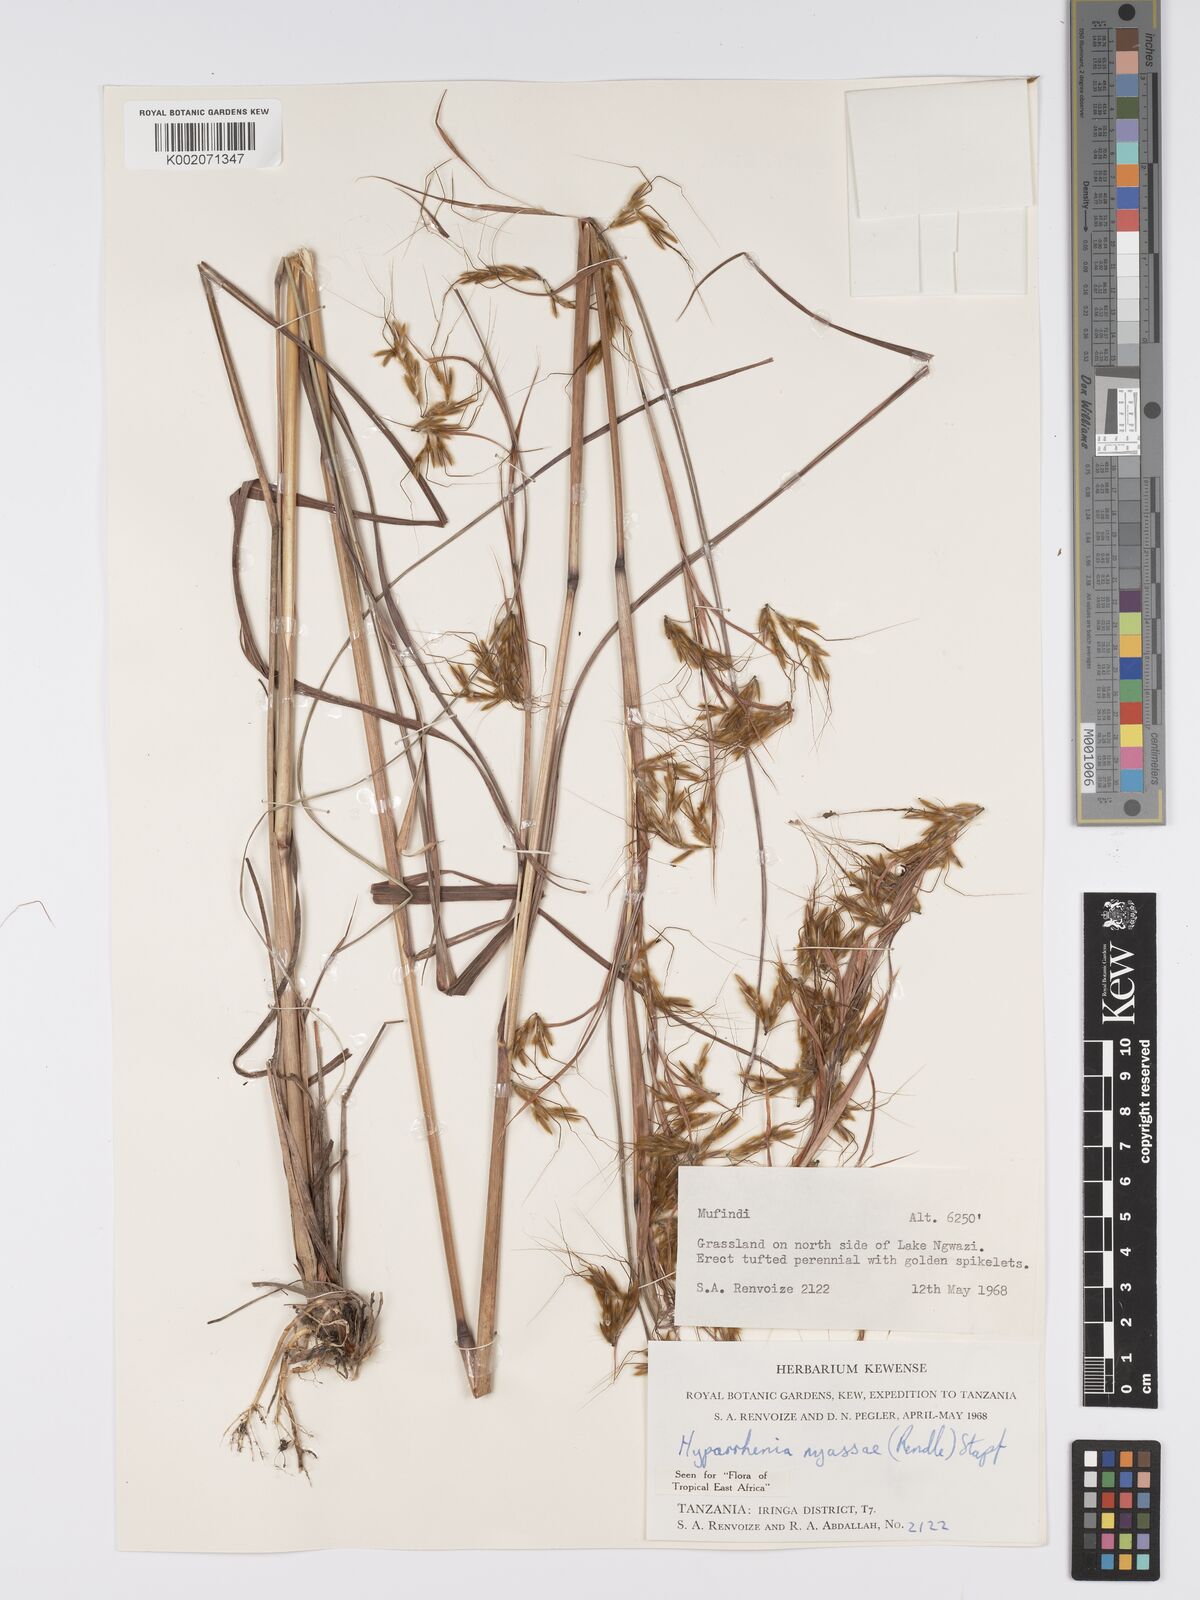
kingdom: Plantae
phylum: Tracheophyta
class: Liliopsida
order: Poales
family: Poaceae
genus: Hyparrhenia
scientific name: Hyparrhenia nyassae
